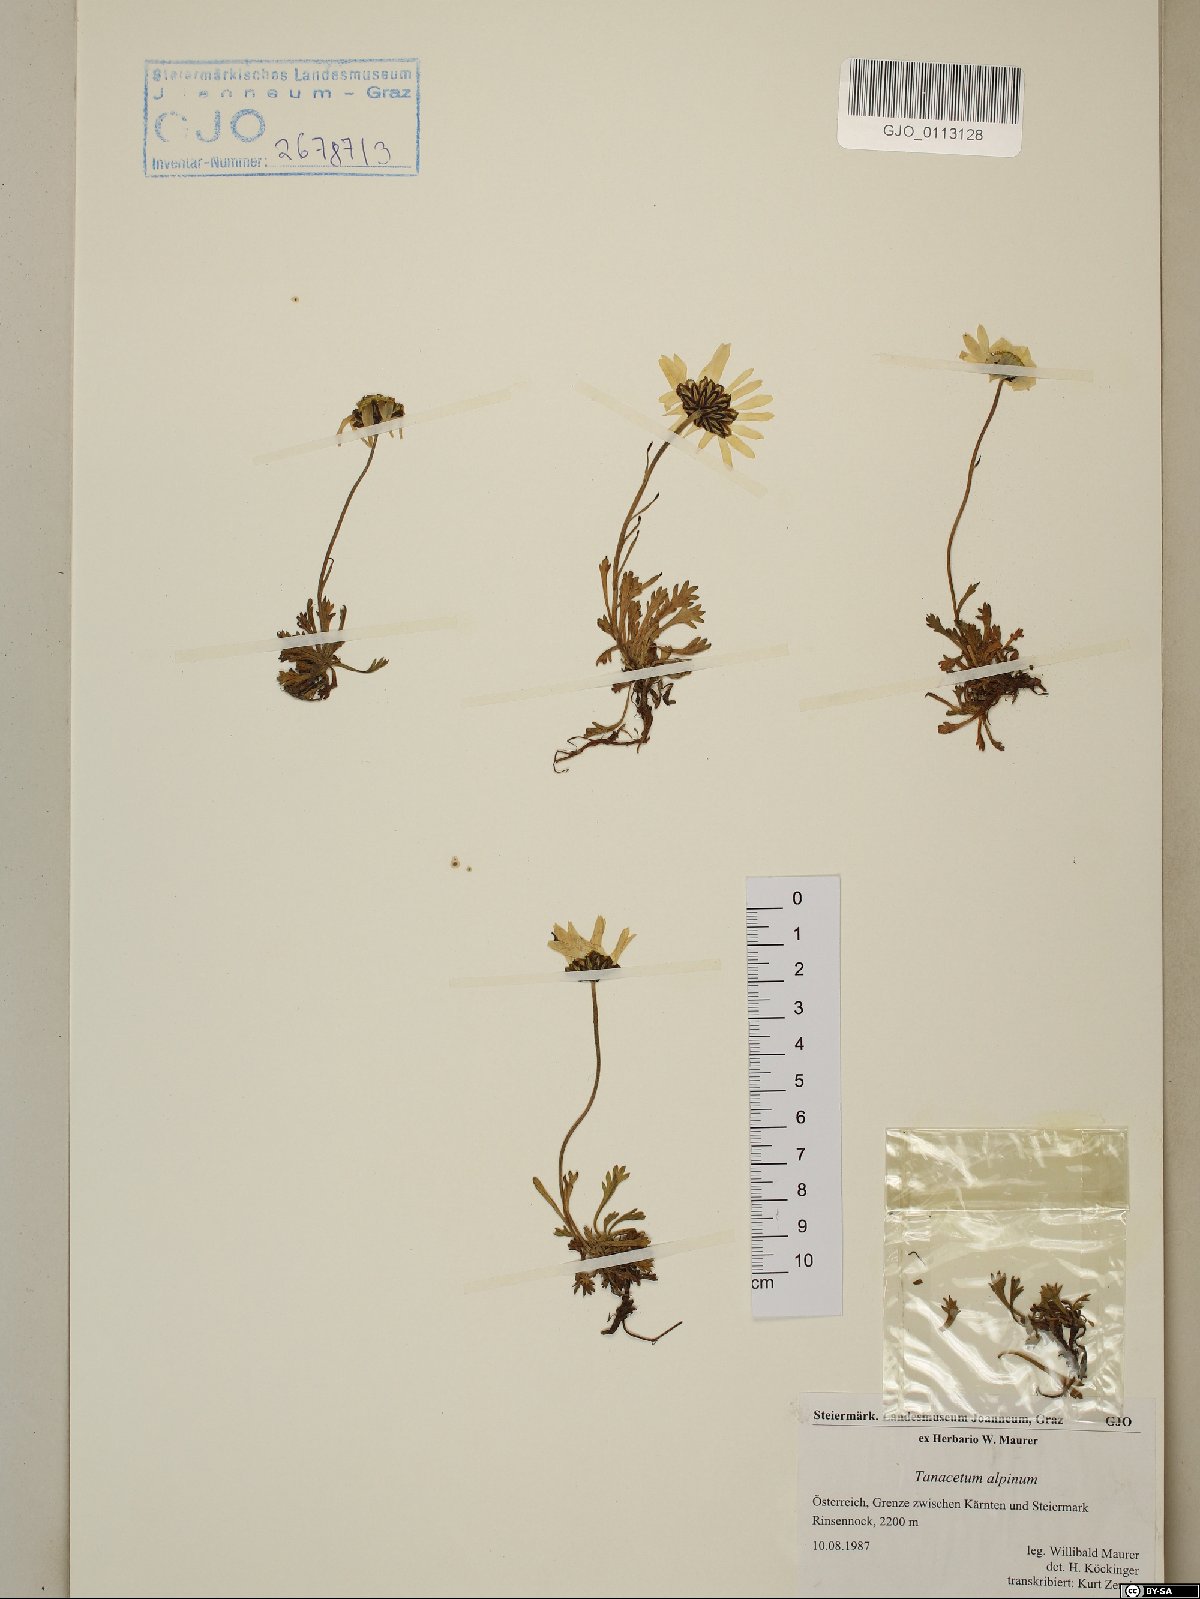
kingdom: Plantae
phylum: Tracheophyta
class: Magnoliopsida
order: Asterales
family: Asteraceae
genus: Leucanthemopsis
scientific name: Leucanthemopsis alpina
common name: Alpine moon daisy
